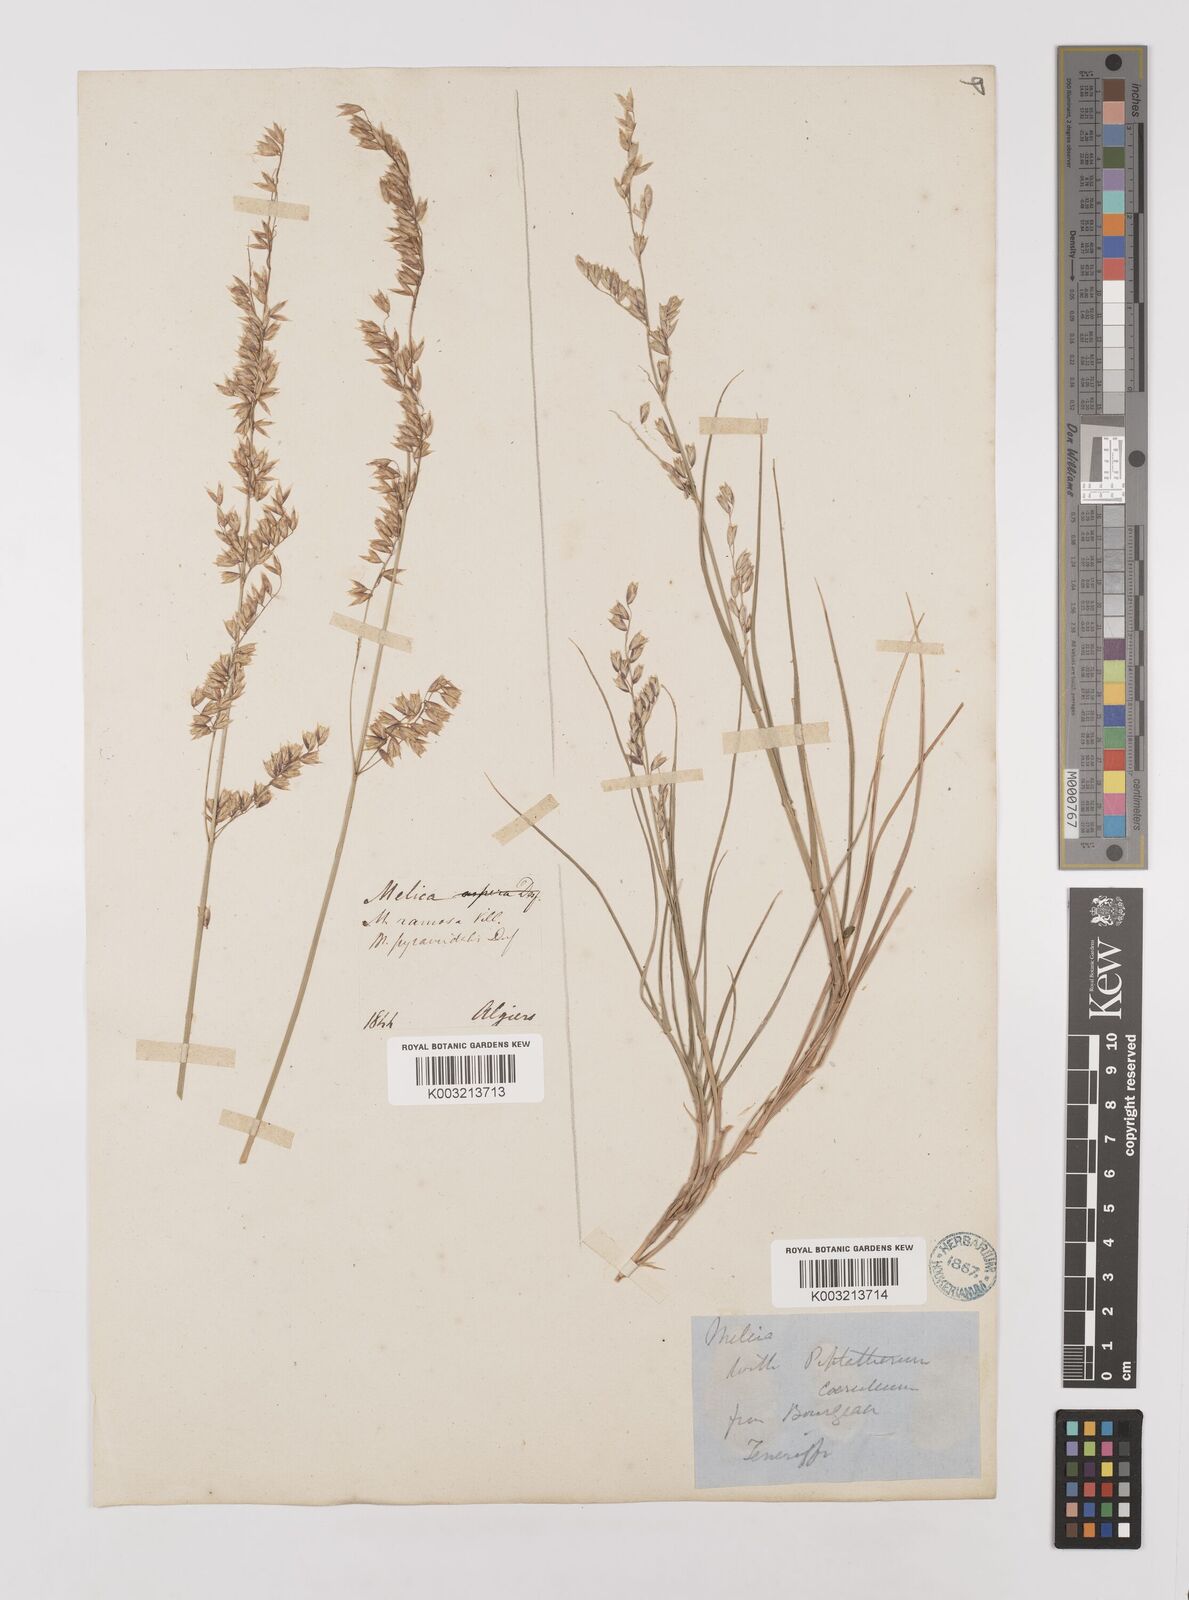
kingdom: Plantae
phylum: Tracheophyta
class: Liliopsida
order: Poales
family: Poaceae
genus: Melica
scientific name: Melica minuta
